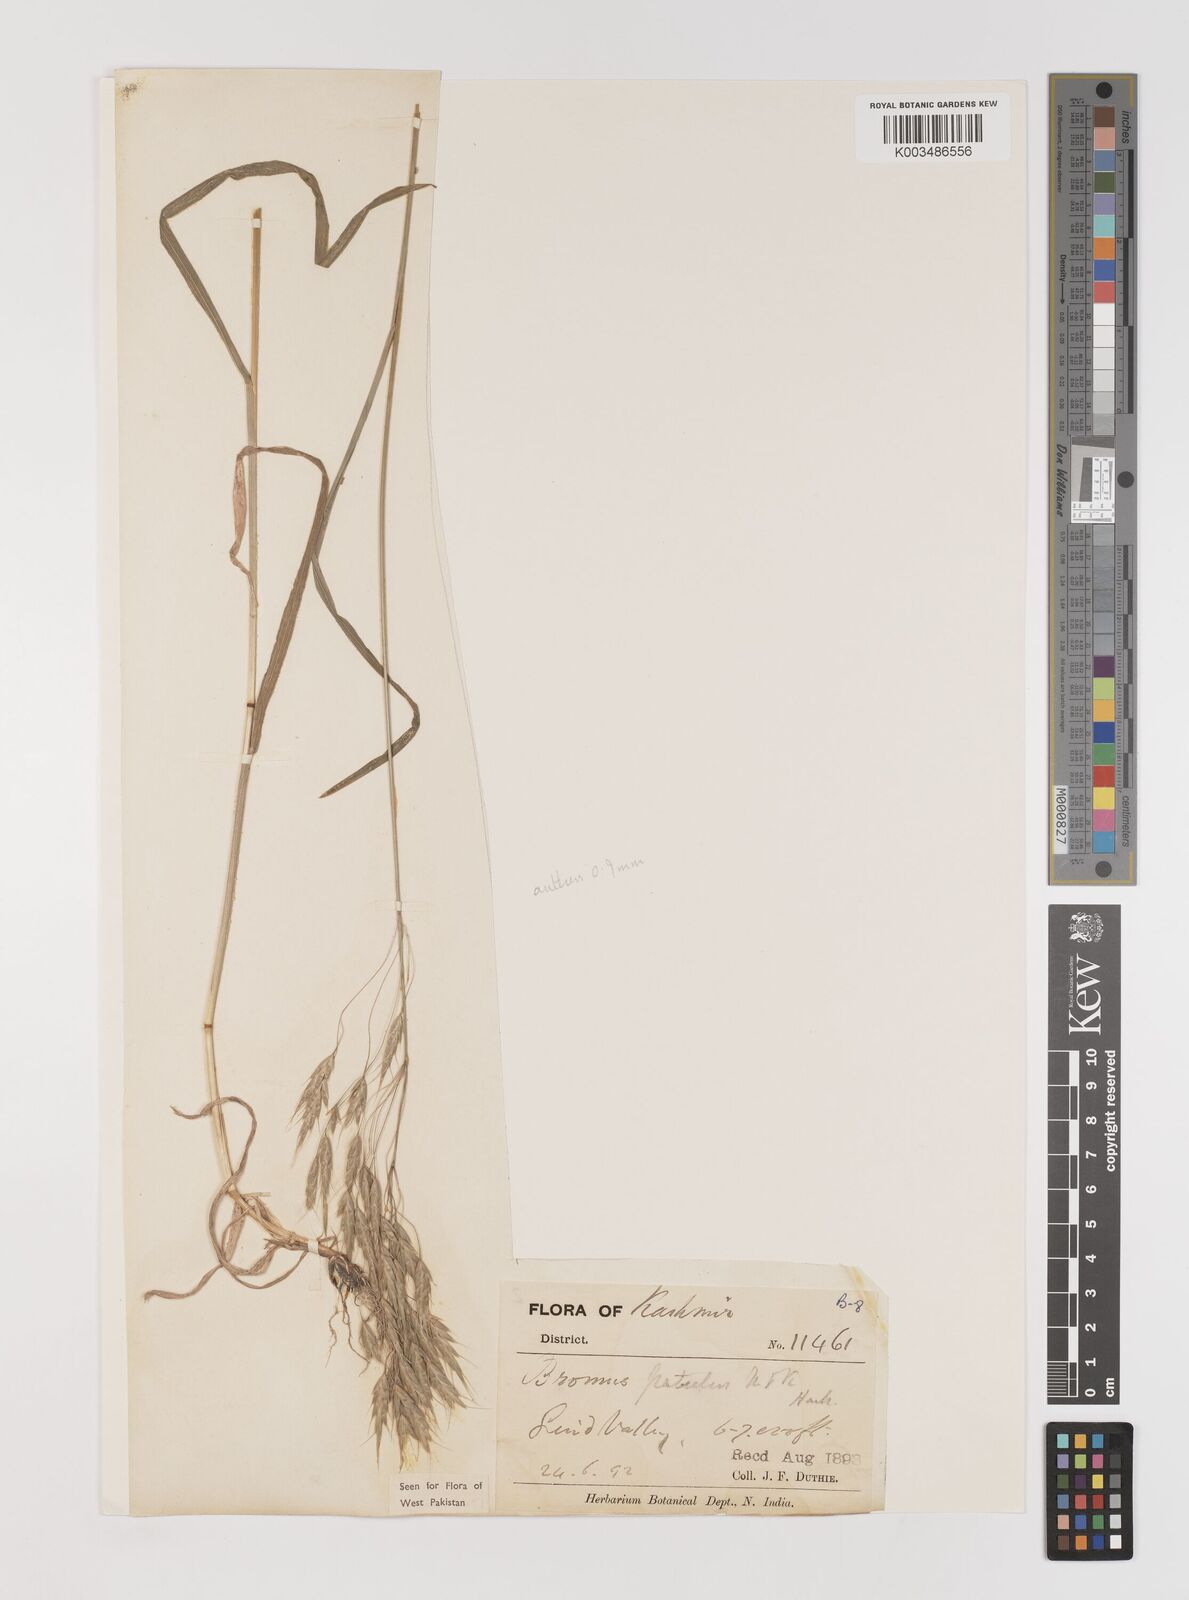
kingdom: Plantae
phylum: Tracheophyta
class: Liliopsida
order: Poales
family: Poaceae
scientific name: Poaceae
